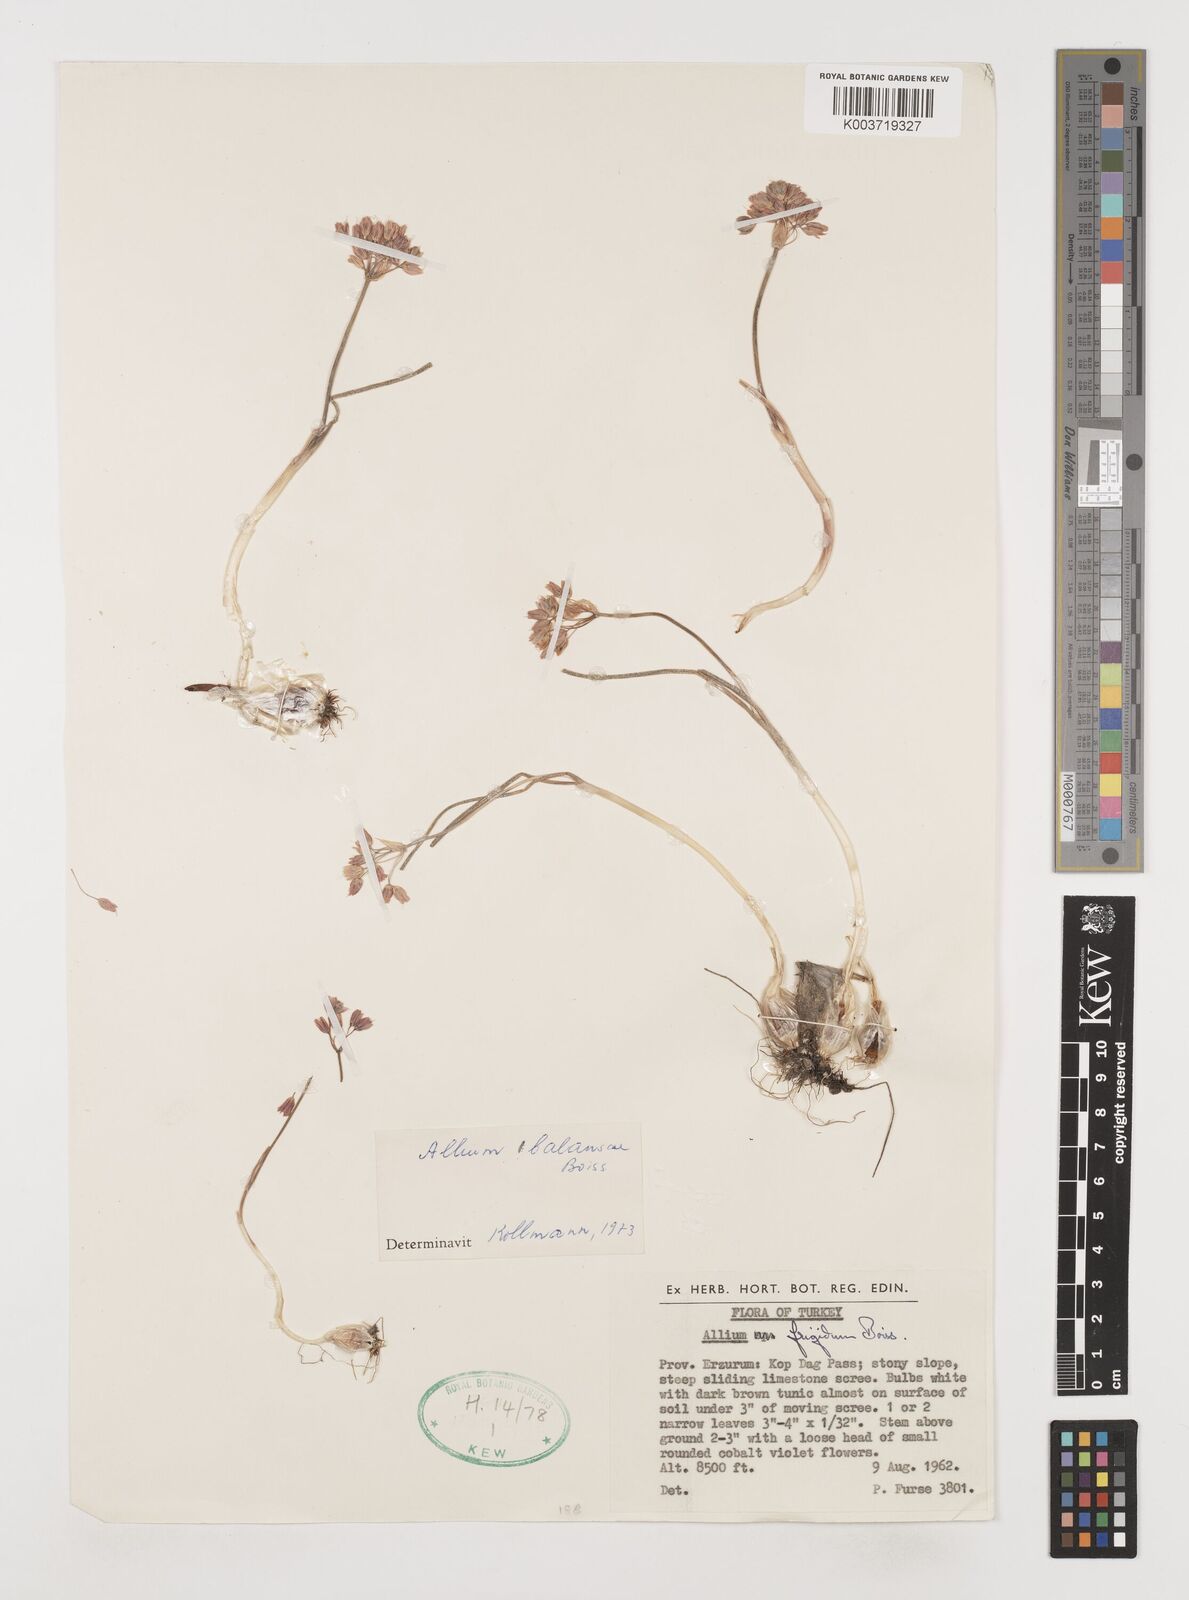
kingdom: Plantae
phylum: Tracheophyta
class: Liliopsida
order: Asparagales
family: Amaryllidaceae
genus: Allium
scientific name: Allium balansae
